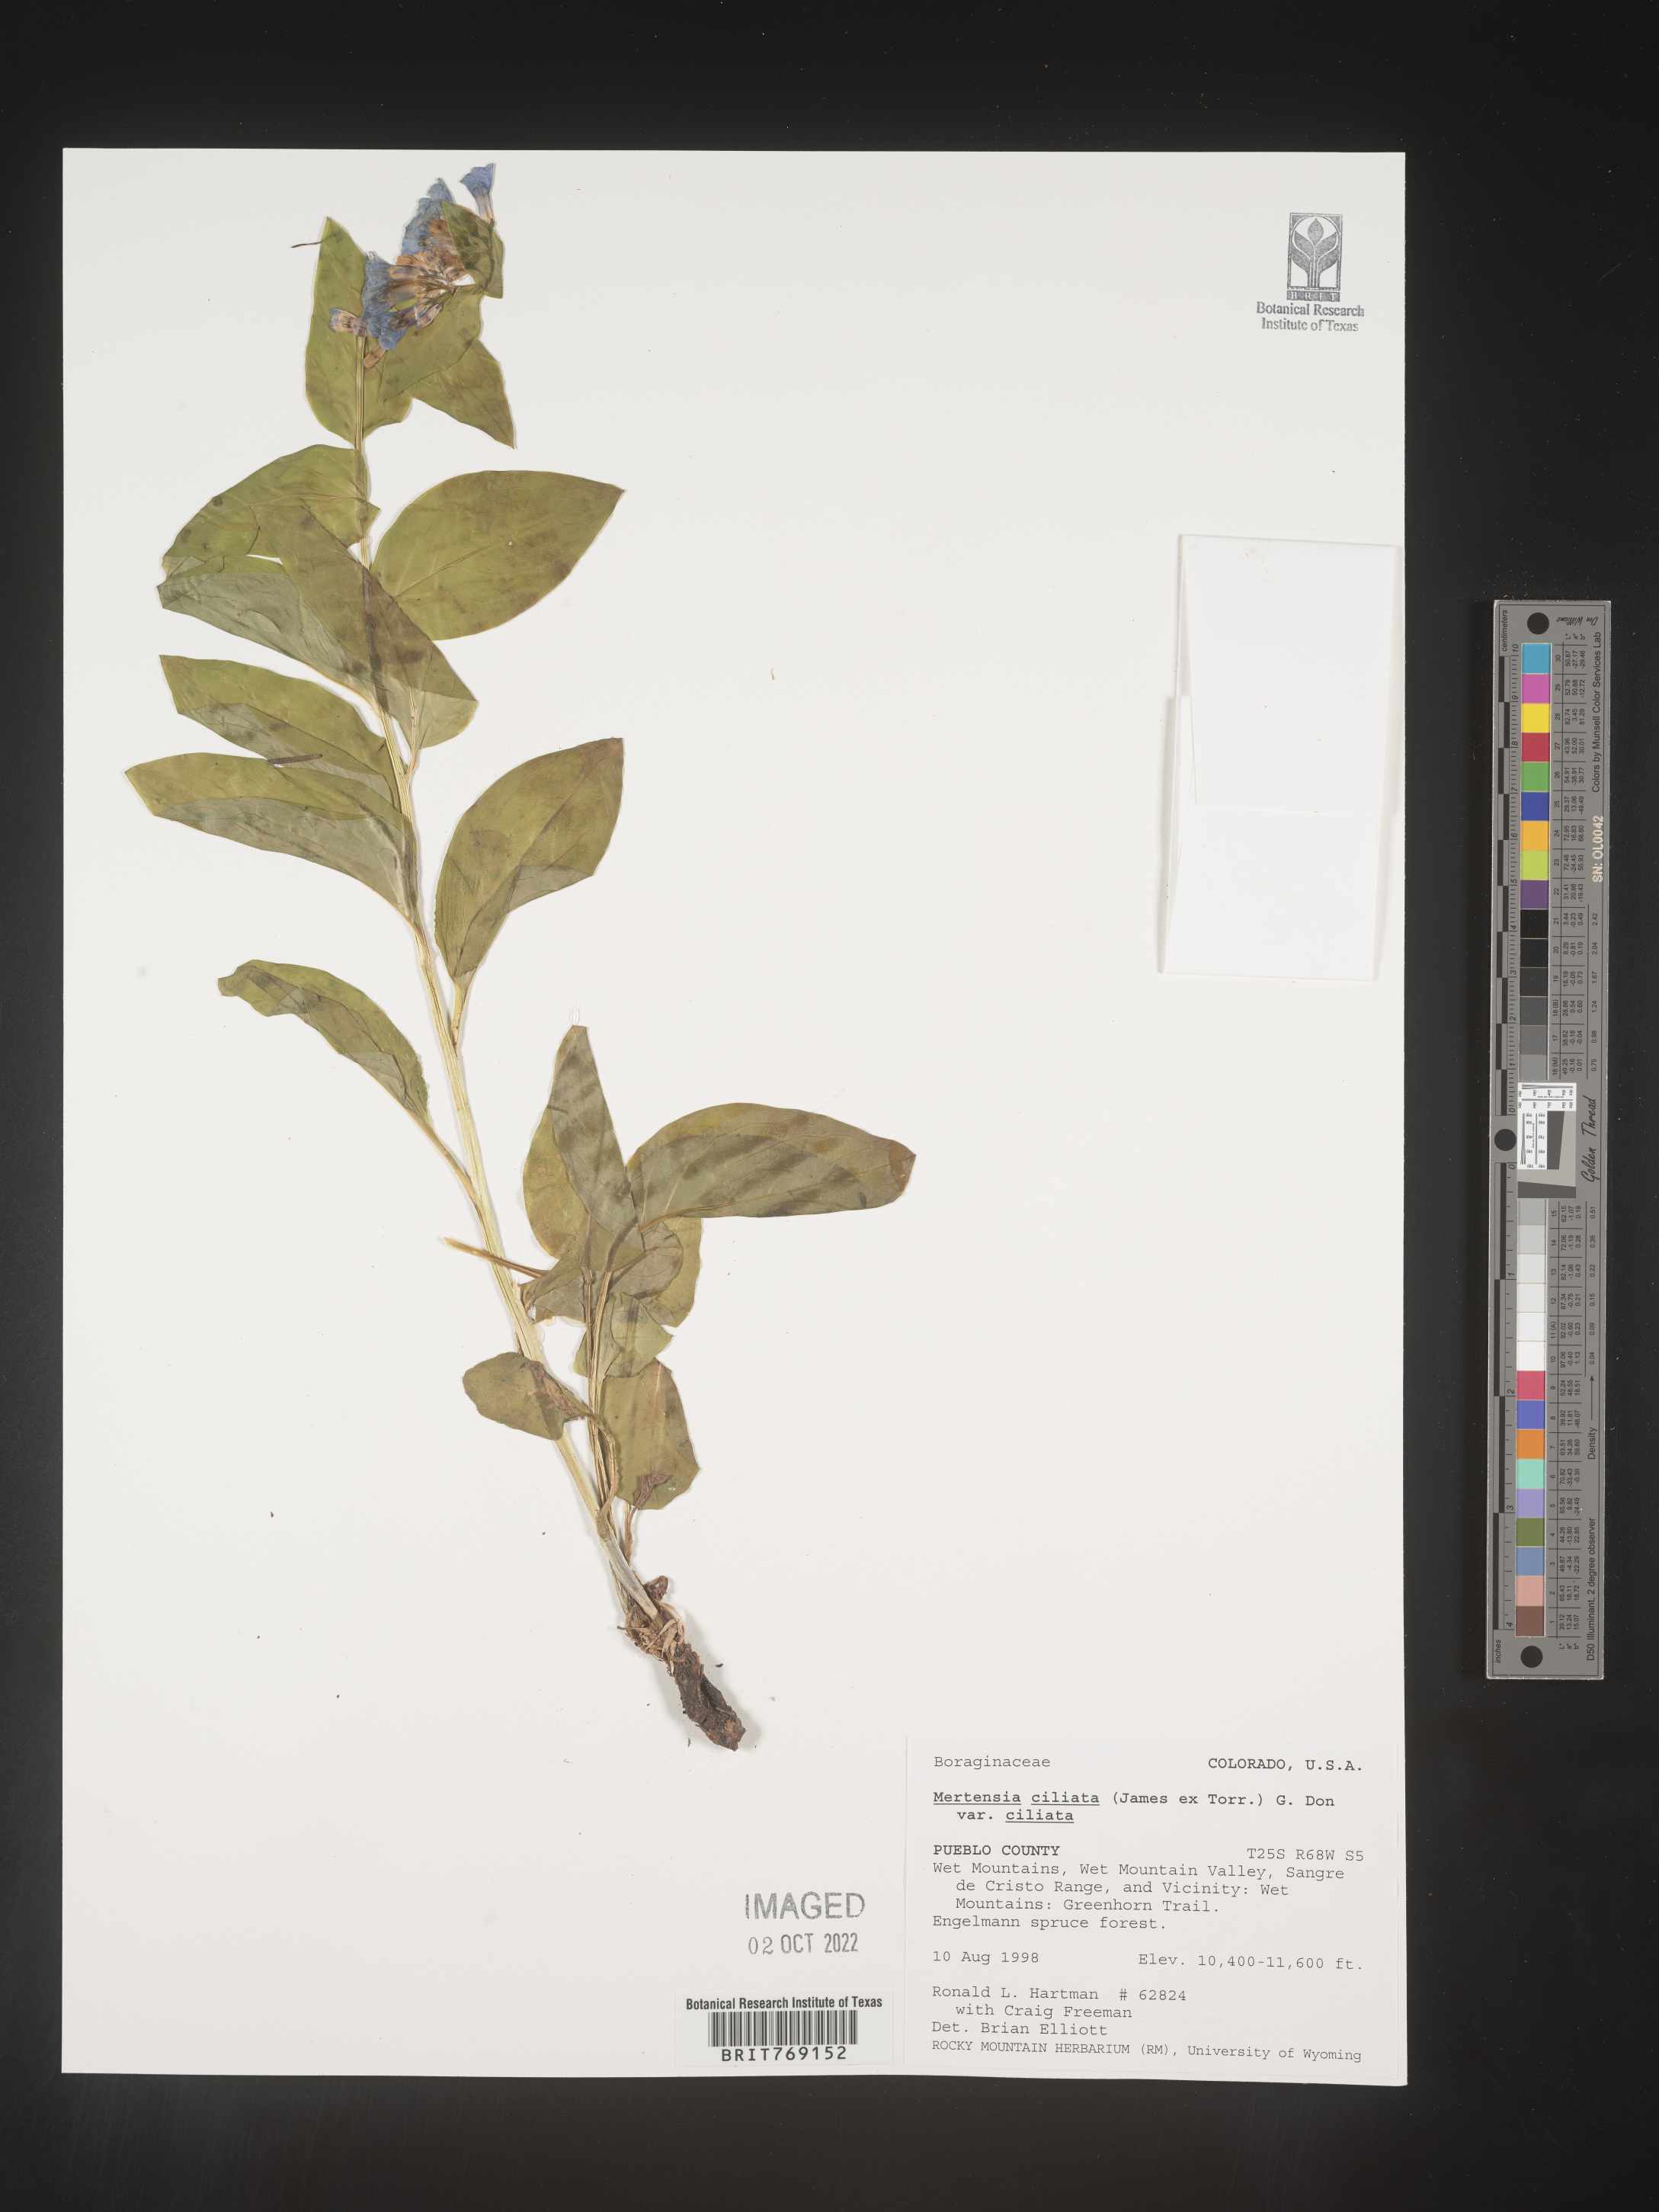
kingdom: Plantae
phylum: Tracheophyta
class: Magnoliopsida
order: Boraginales
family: Boraginaceae
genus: Mertensia
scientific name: Mertensia
